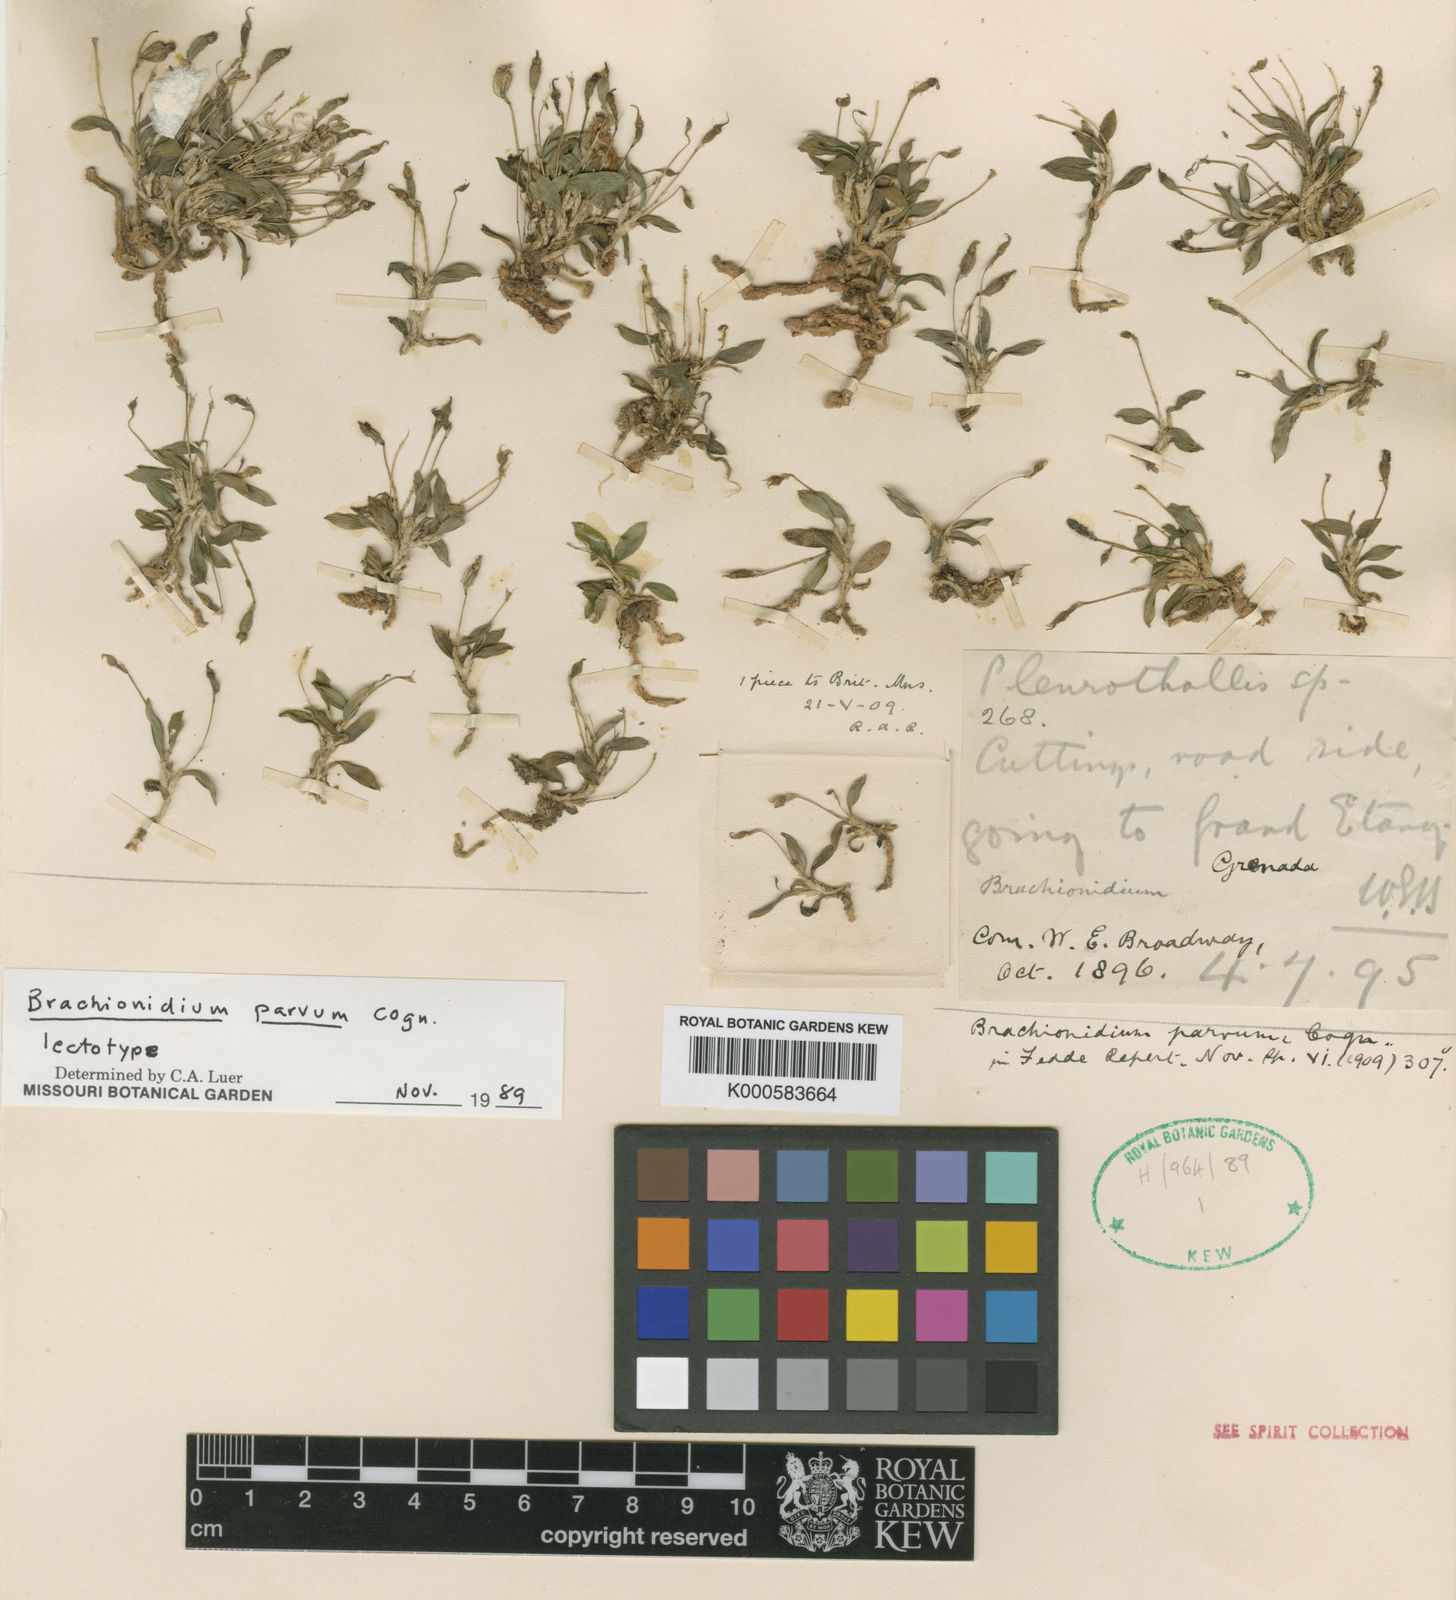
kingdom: Plantae
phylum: Tracheophyta
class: Liliopsida
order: Asparagales
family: Orchidaceae
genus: Brachionidium
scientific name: Brachionidium parvum
